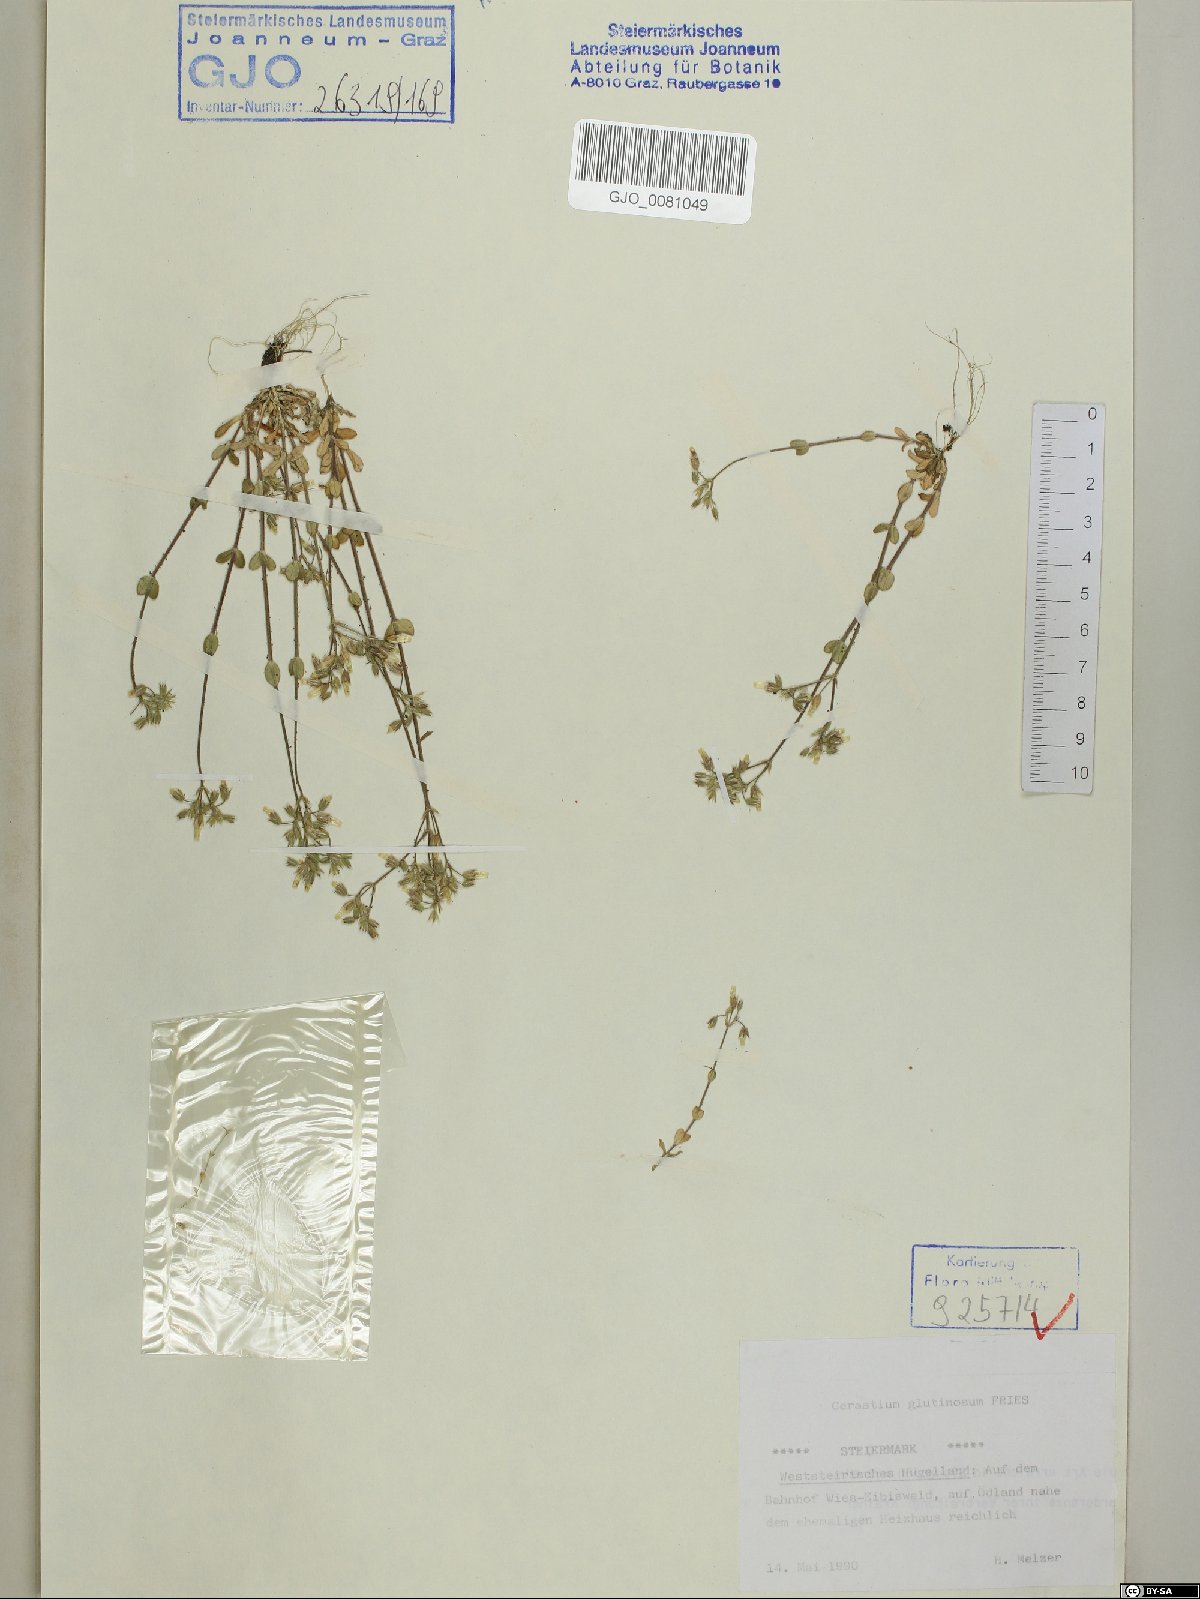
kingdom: Plantae
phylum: Tracheophyta
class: Magnoliopsida
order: Caryophyllales
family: Caryophyllaceae
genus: Cerastium
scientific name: Cerastium glutinosum
